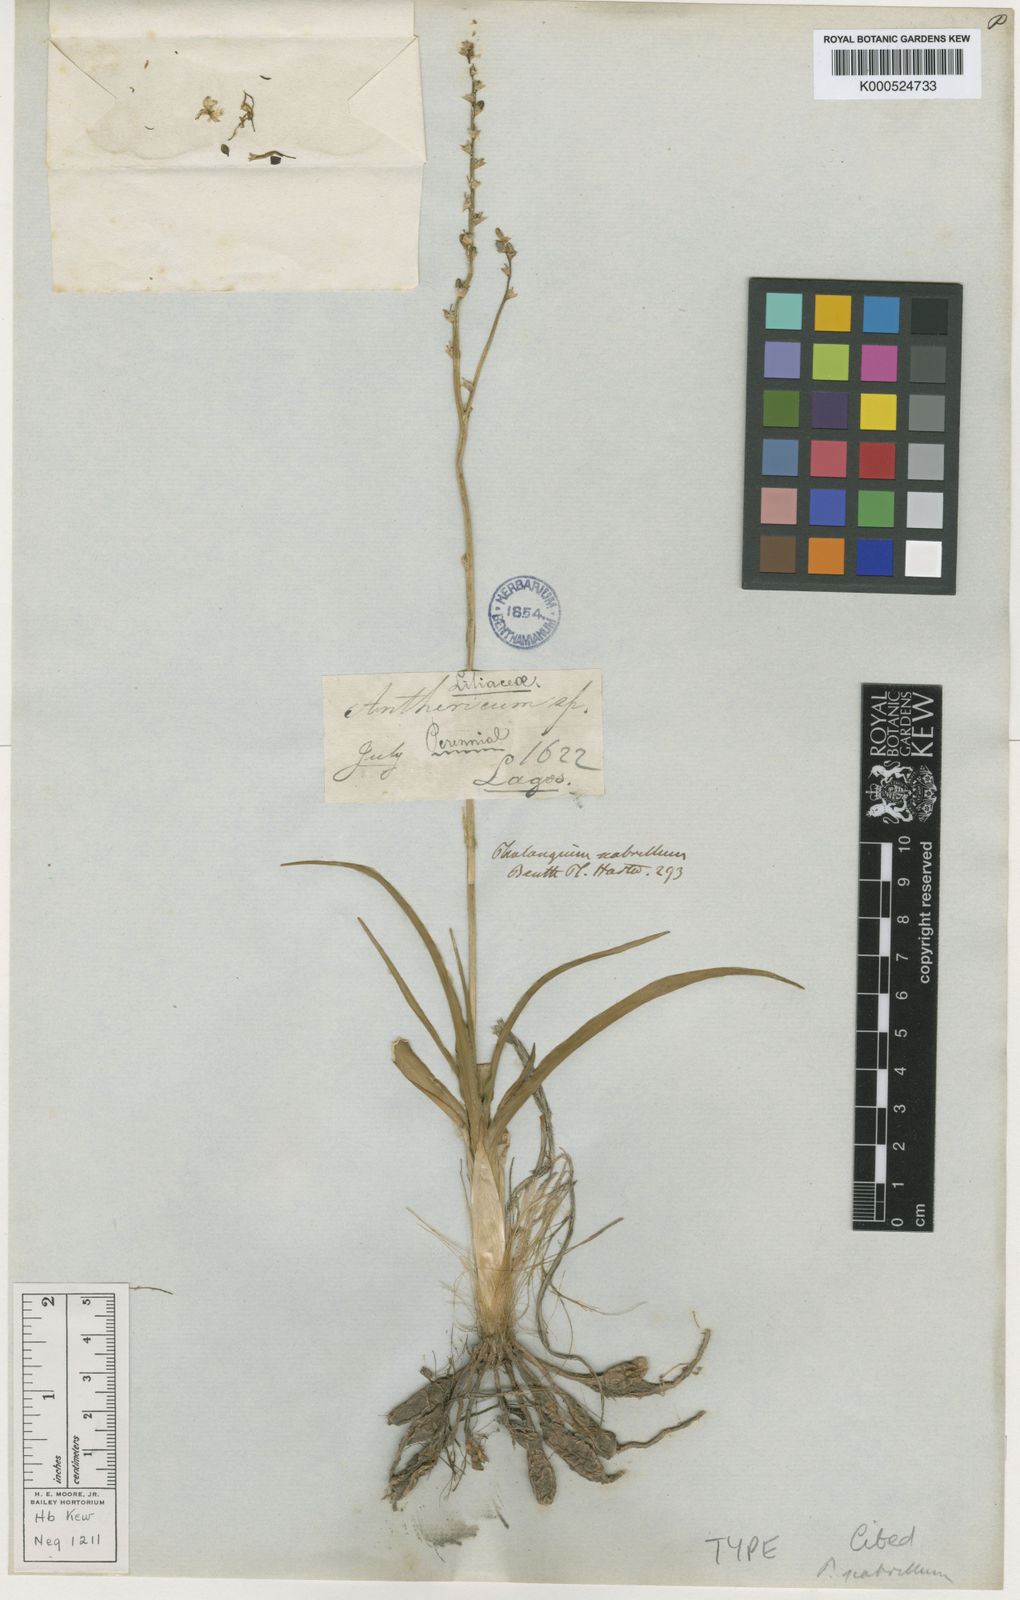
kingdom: Plantae
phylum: Tracheophyta
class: Liliopsida
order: Asparagales
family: Asparagaceae
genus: Echeandia
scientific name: Echeandia scabrella
